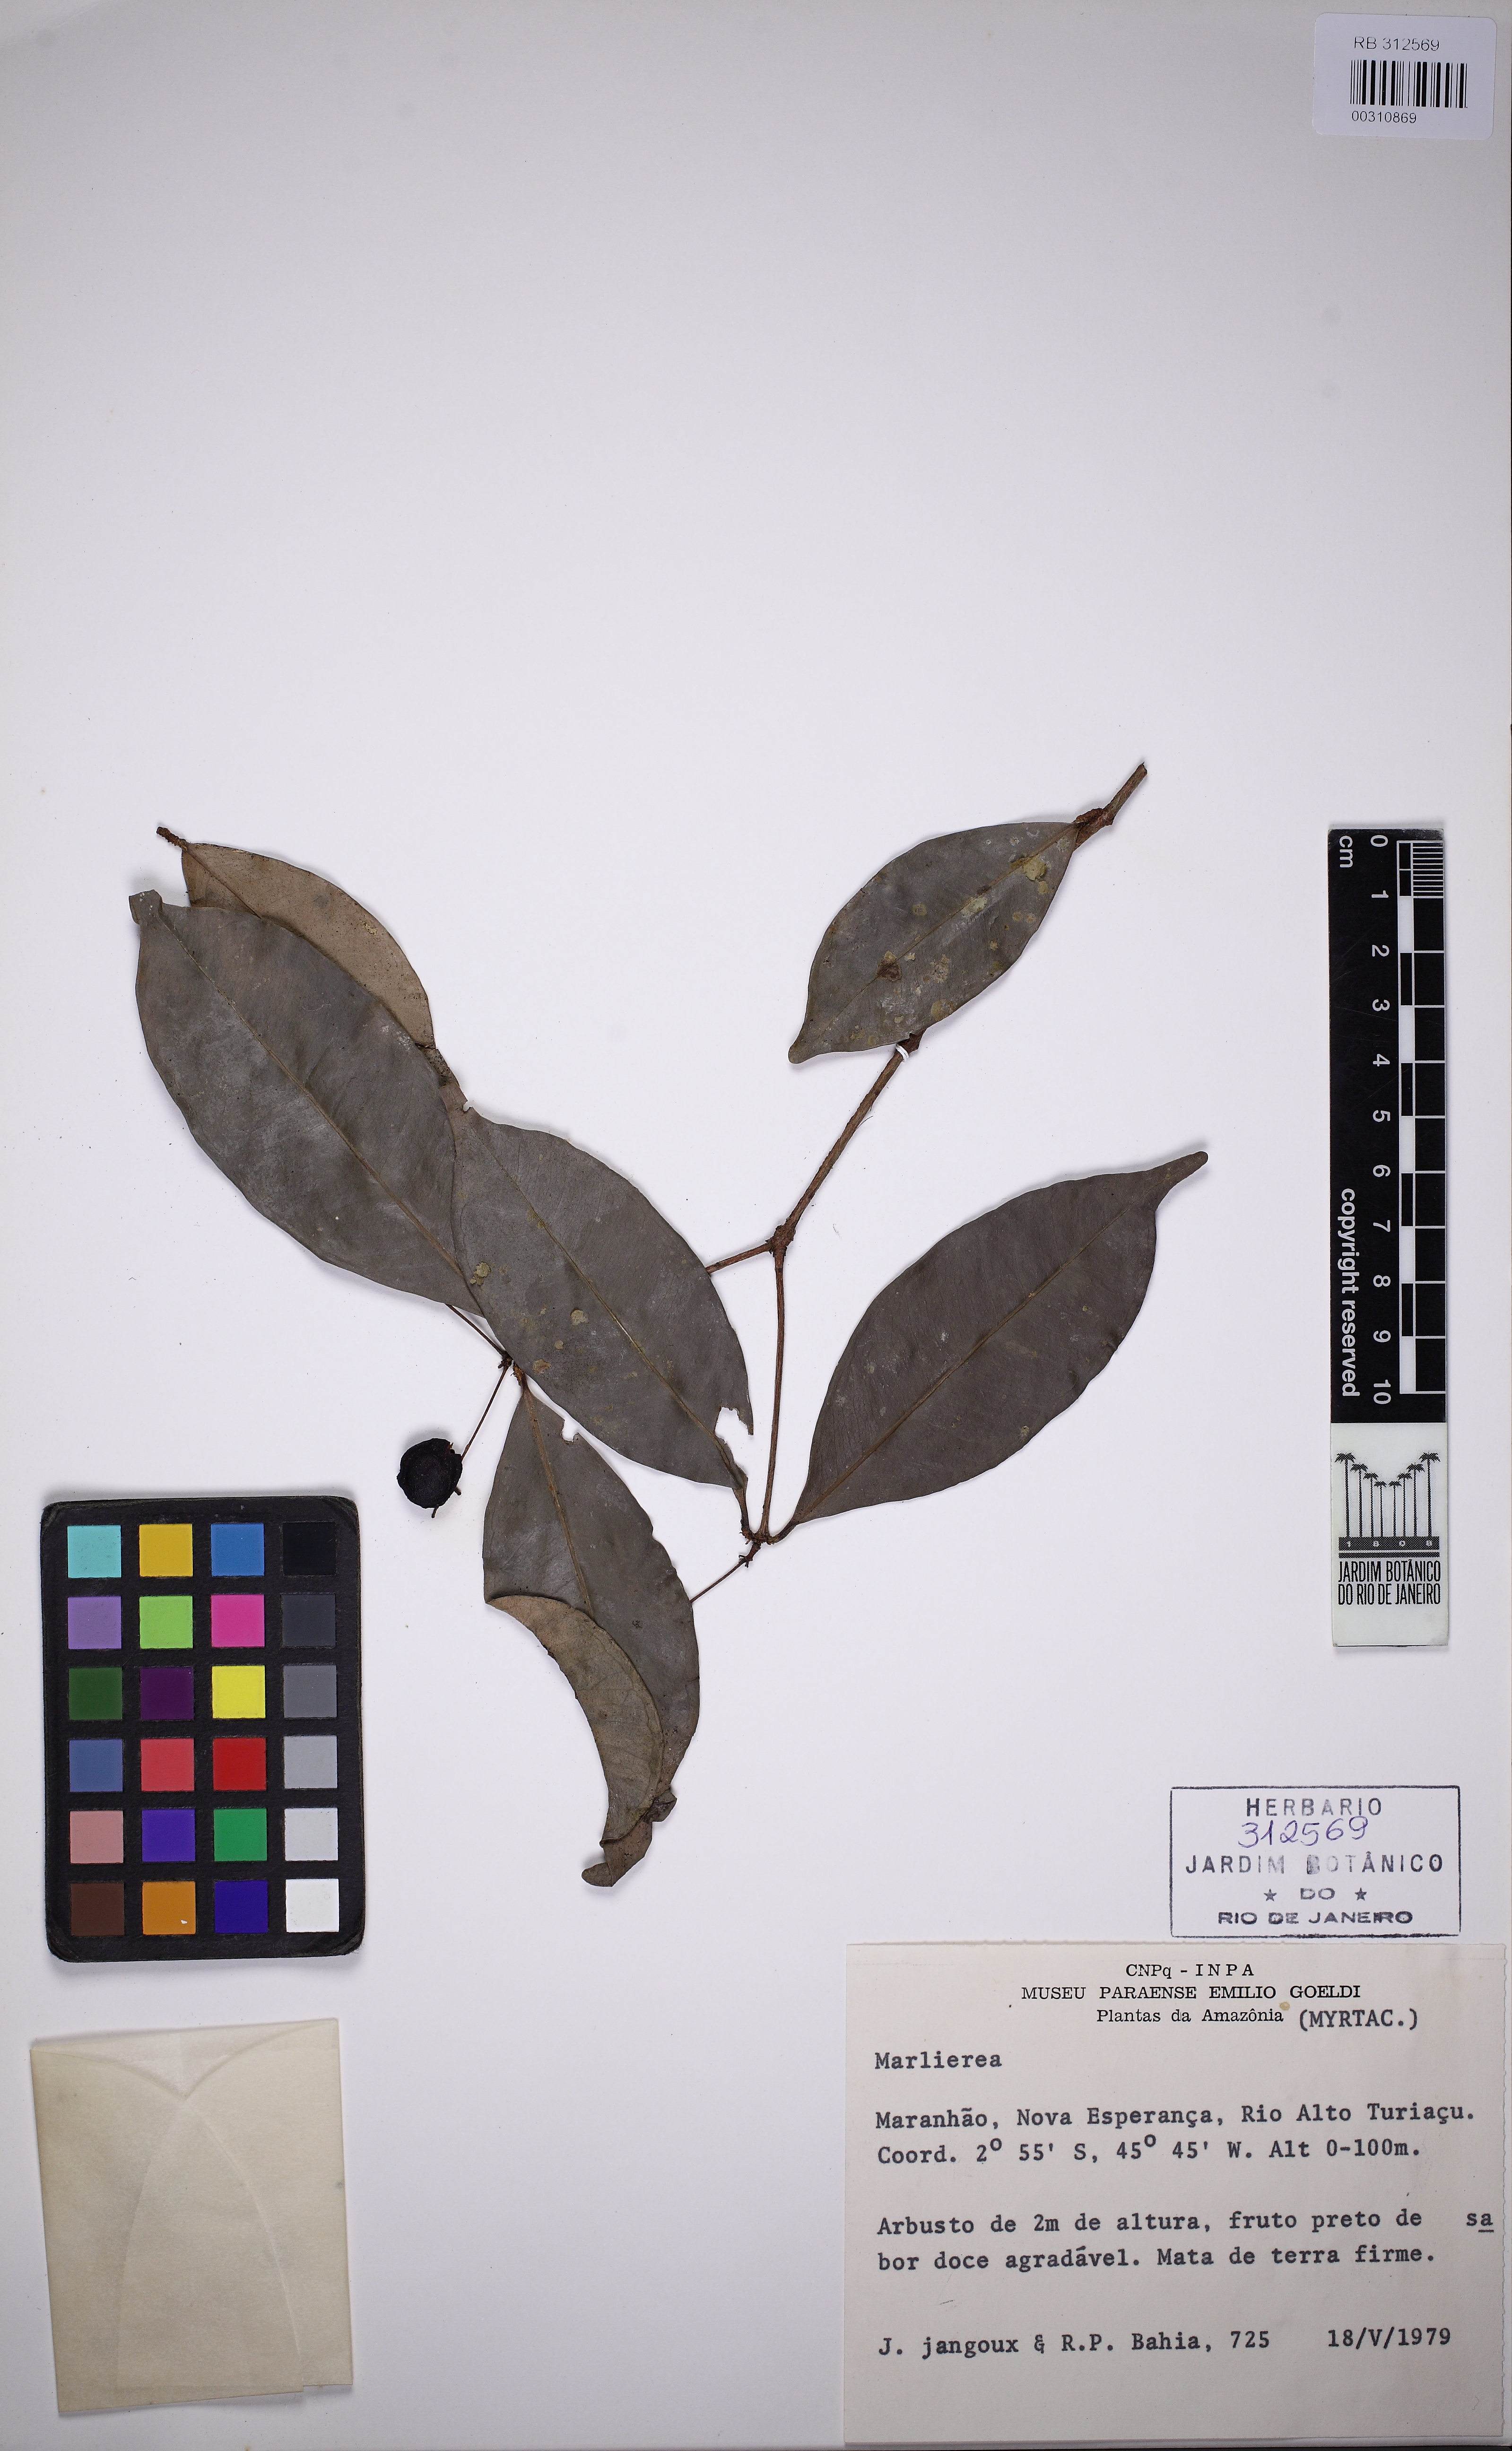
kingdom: Plantae
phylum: Tracheophyta
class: Magnoliopsida
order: Myrtales
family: Myrtaceae
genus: Marlierea
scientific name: Marlierea
